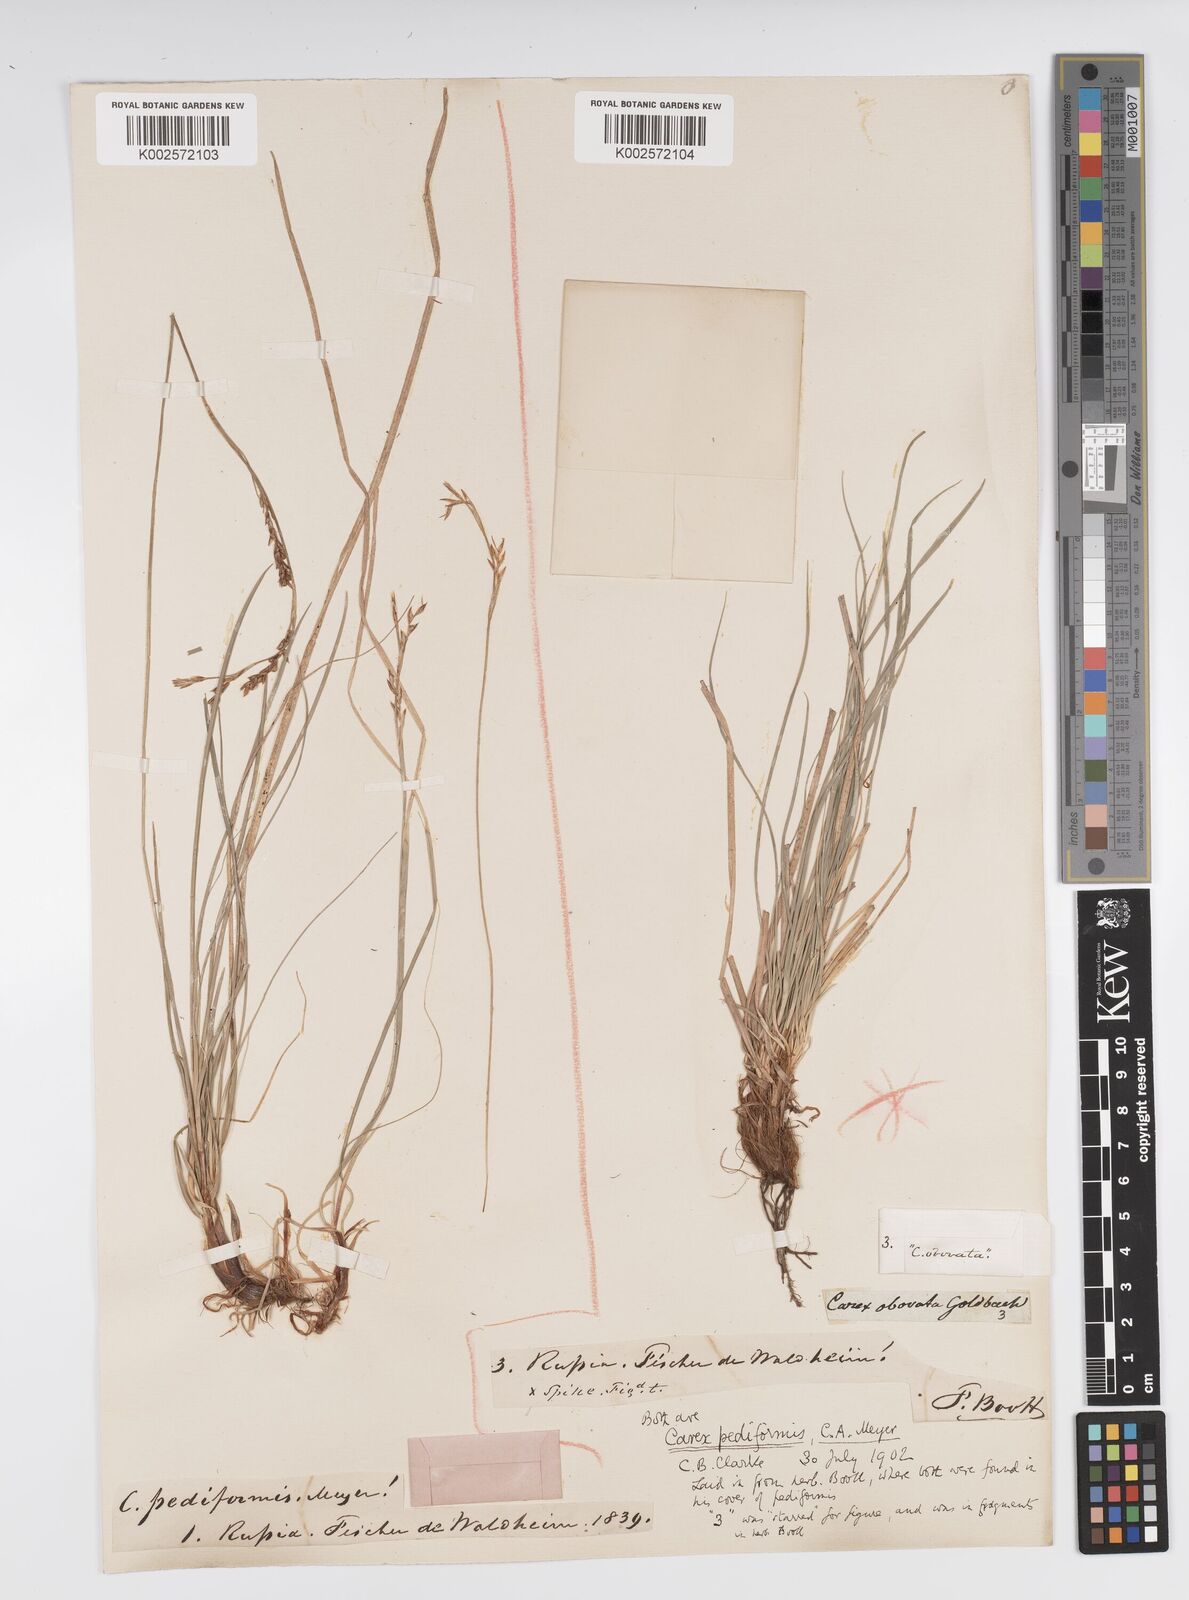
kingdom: Plantae
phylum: Tracheophyta
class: Liliopsida
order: Poales
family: Cyperaceae
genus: Carex
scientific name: Carex pediformis
